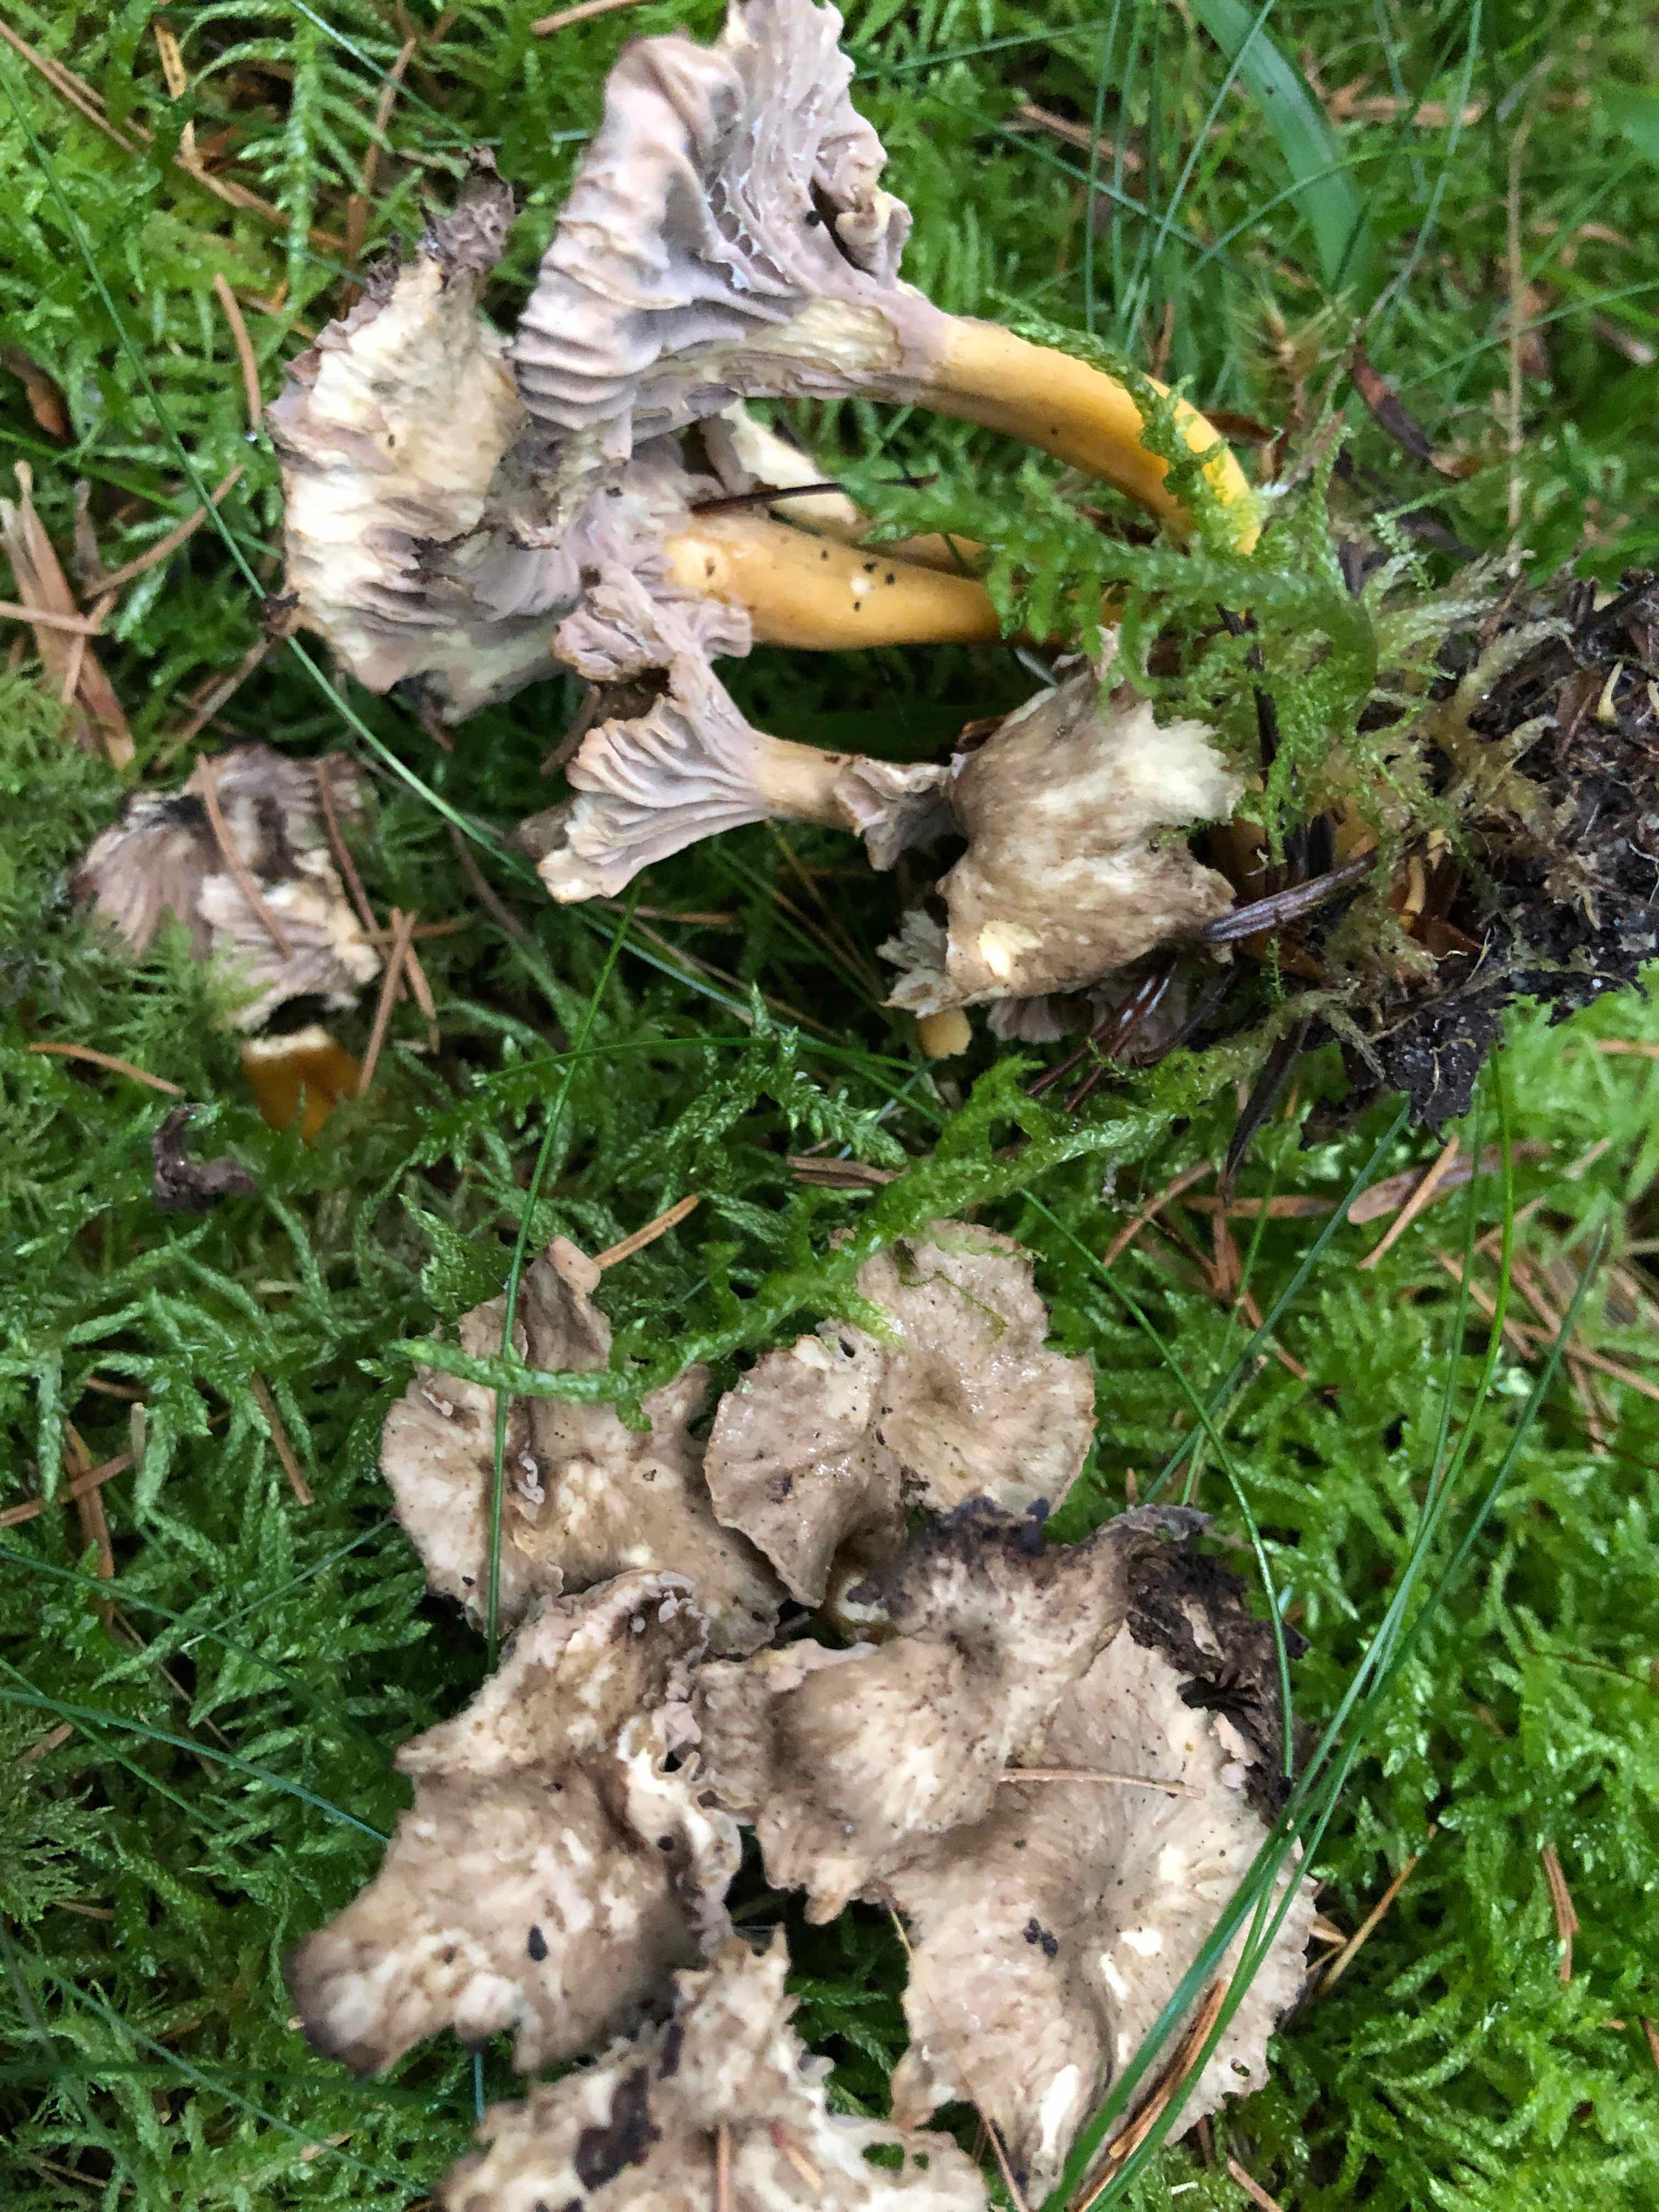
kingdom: Fungi
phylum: Basidiomycota
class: Agaricomycetes
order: Cantharellales
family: Hydnaceae
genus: Craterellus
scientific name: Craterellus tubaeformis
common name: tragt-kantarel
